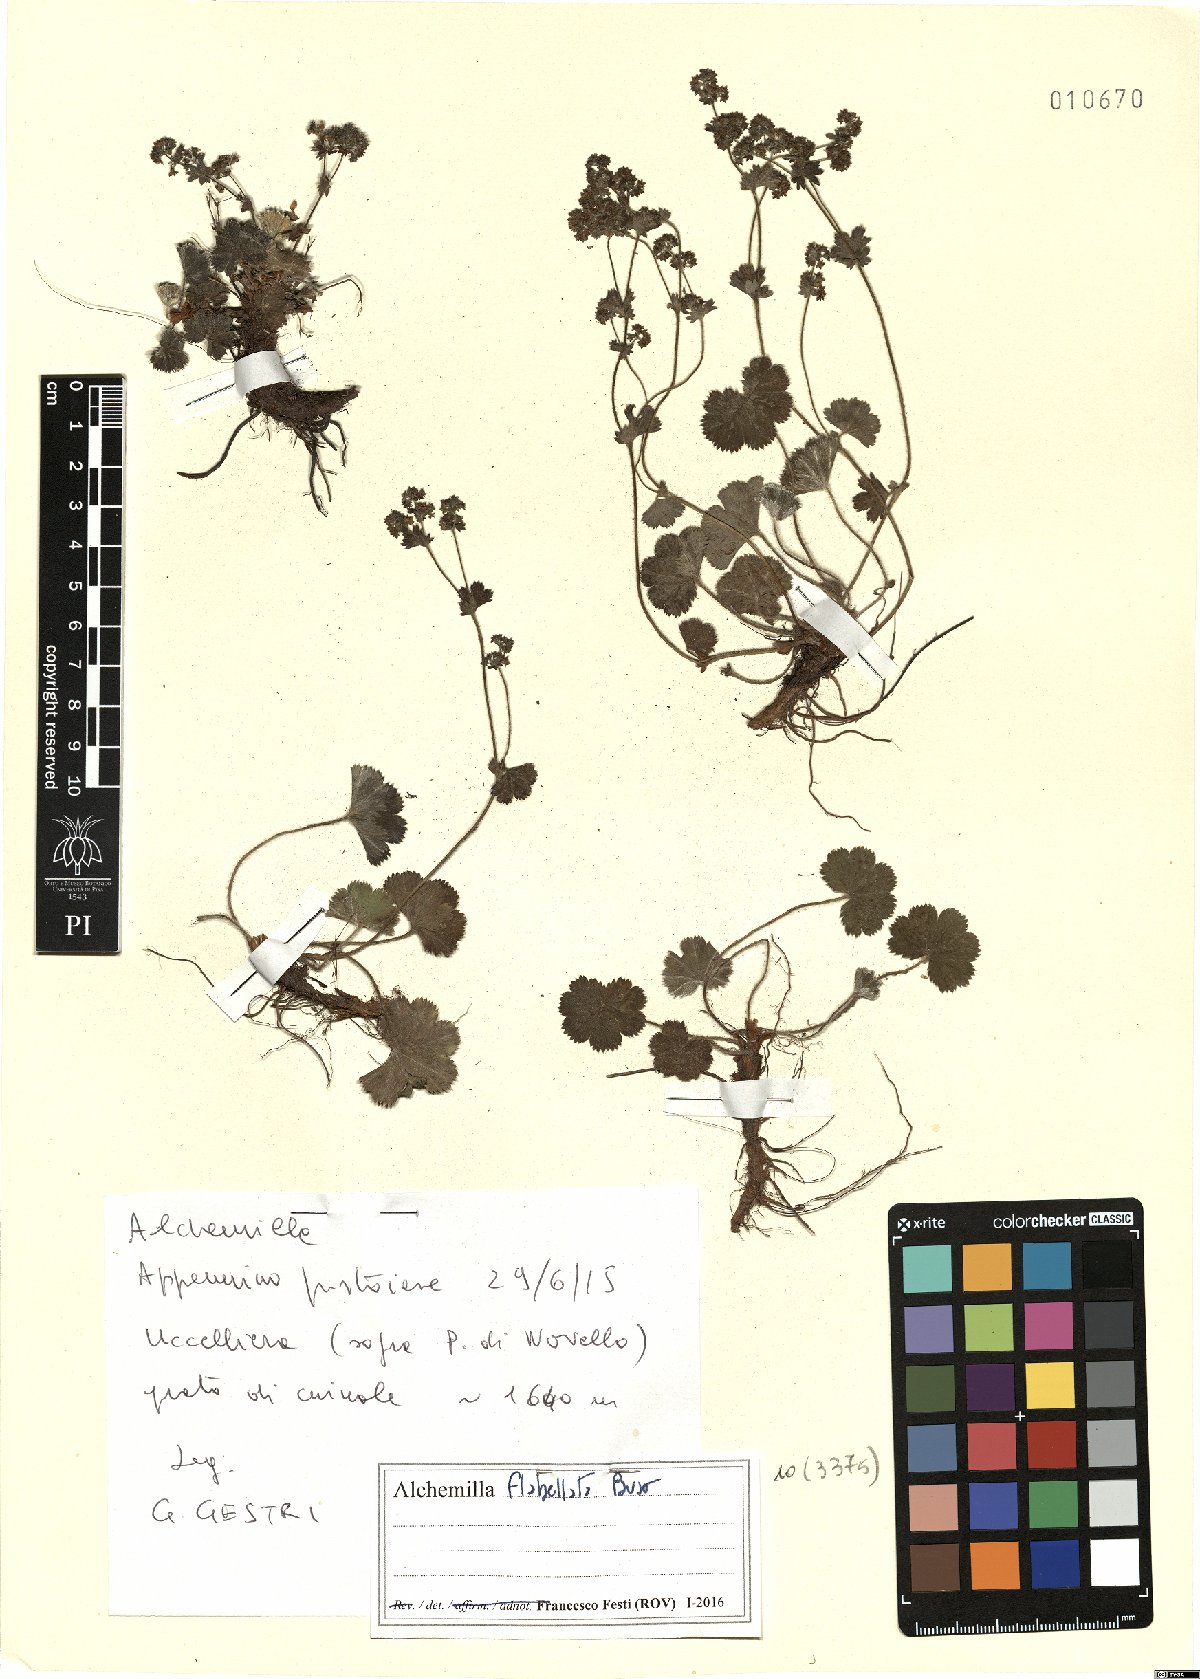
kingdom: Plantae
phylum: Tracheophyta
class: Magnoliopsida
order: Rosales
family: Rosaceae
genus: Alchemilla
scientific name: Alchemilla flabellata
